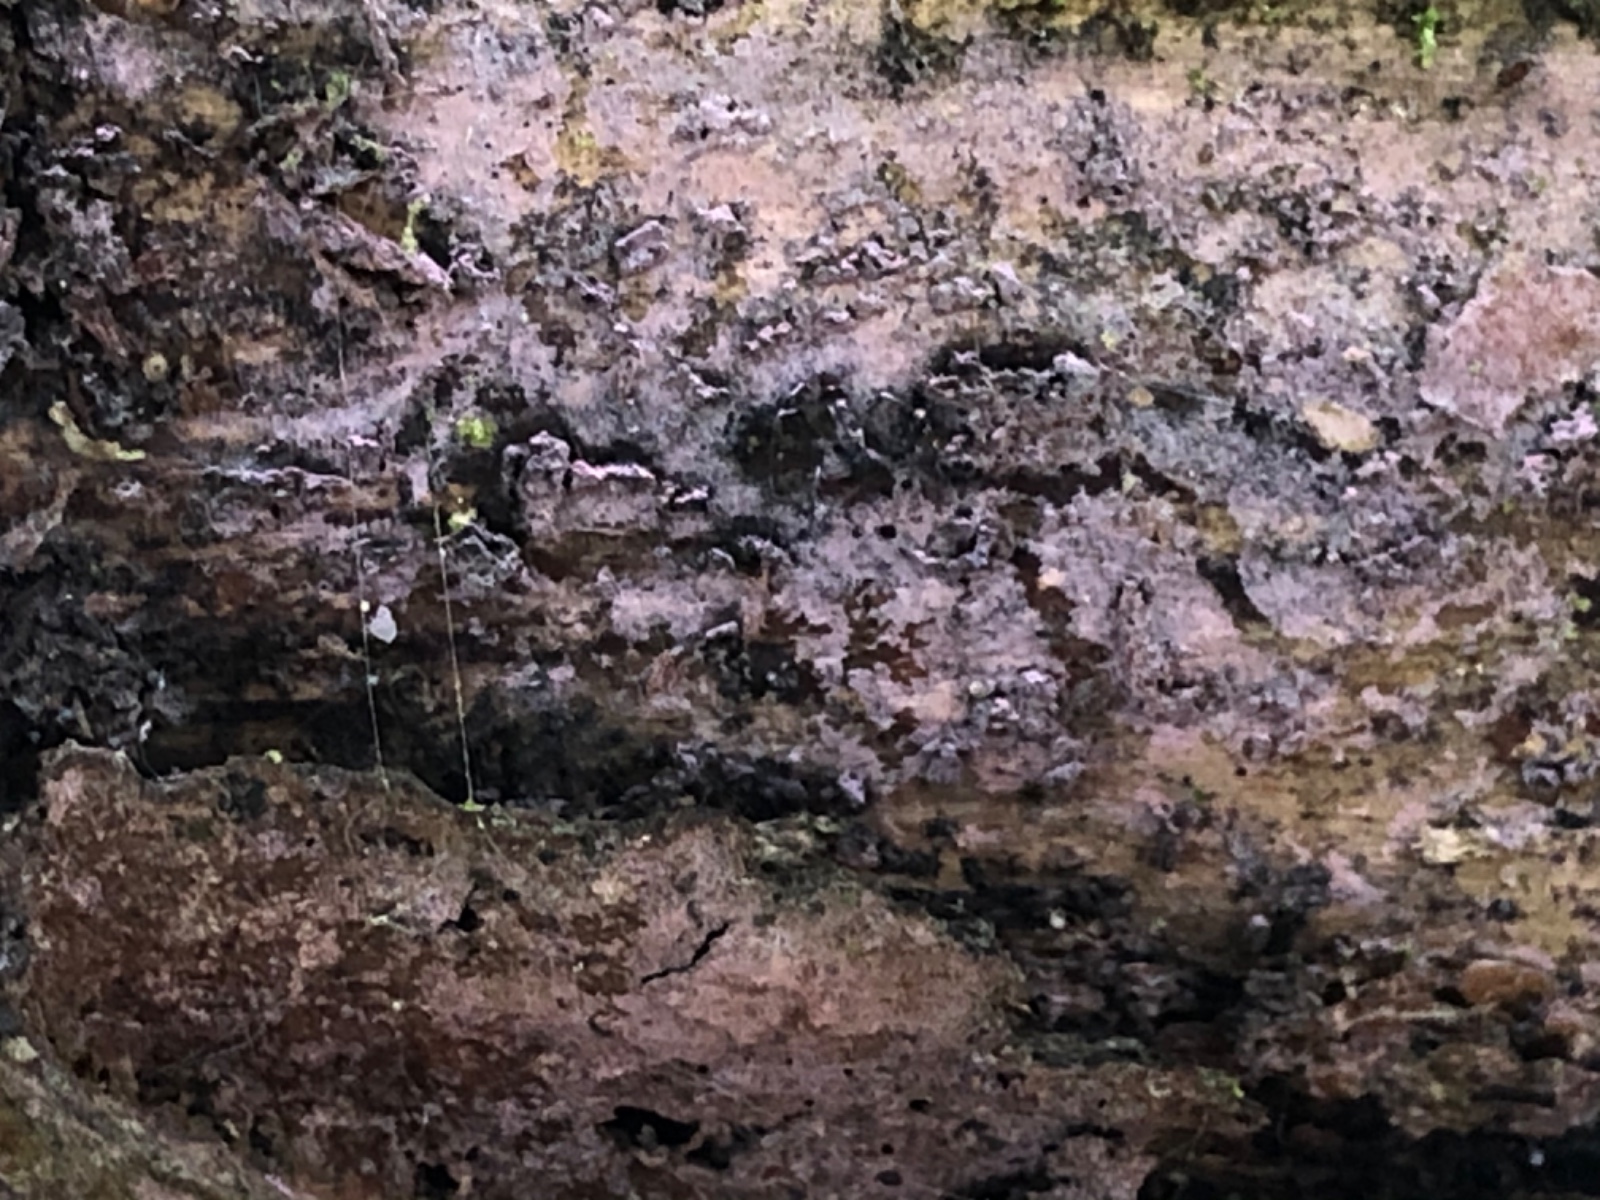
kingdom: Fungi
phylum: Basidiomycota
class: Agaricomycetes
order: Cantharellales
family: Tulasnellaceae
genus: Tulasnella
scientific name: Tulasnella violea
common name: violet ballonhinde
